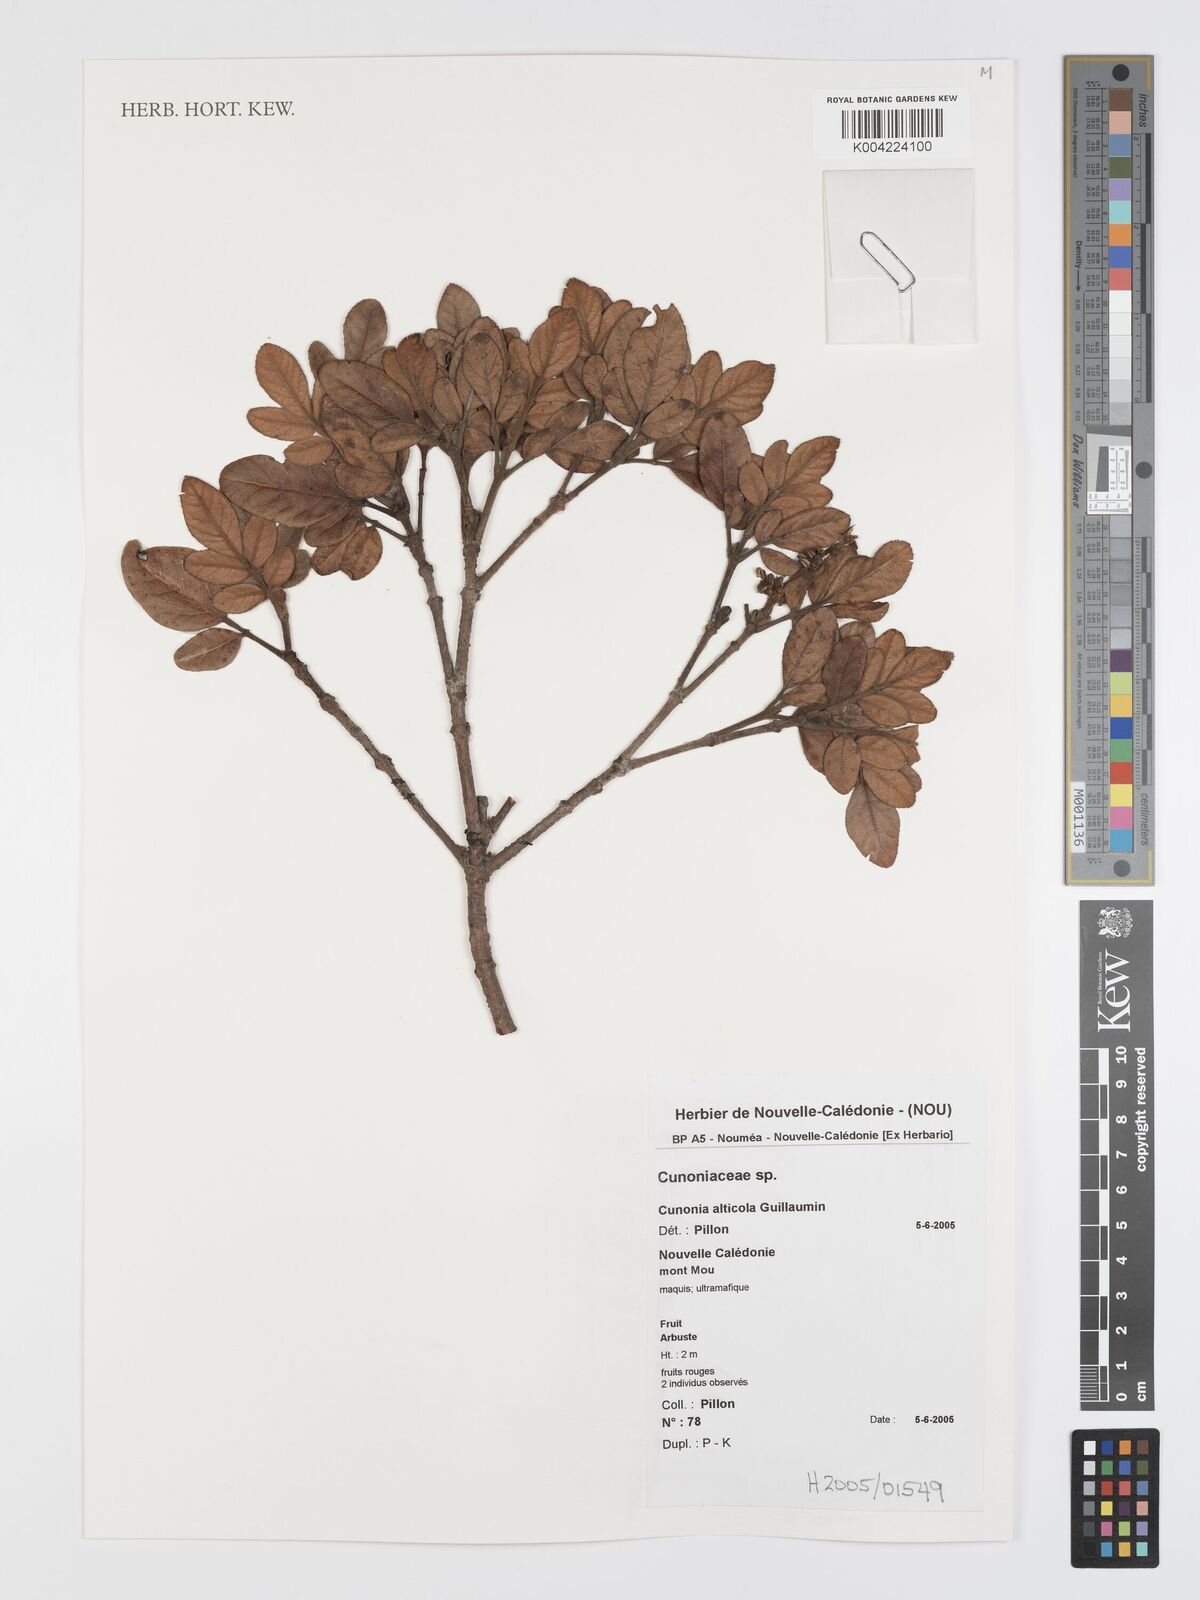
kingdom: Plantae
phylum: Tracheophyta
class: Magnoliopsida
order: Oxalidales
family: Cunoniaceae
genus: Cunonia
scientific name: Cunonia alticola
